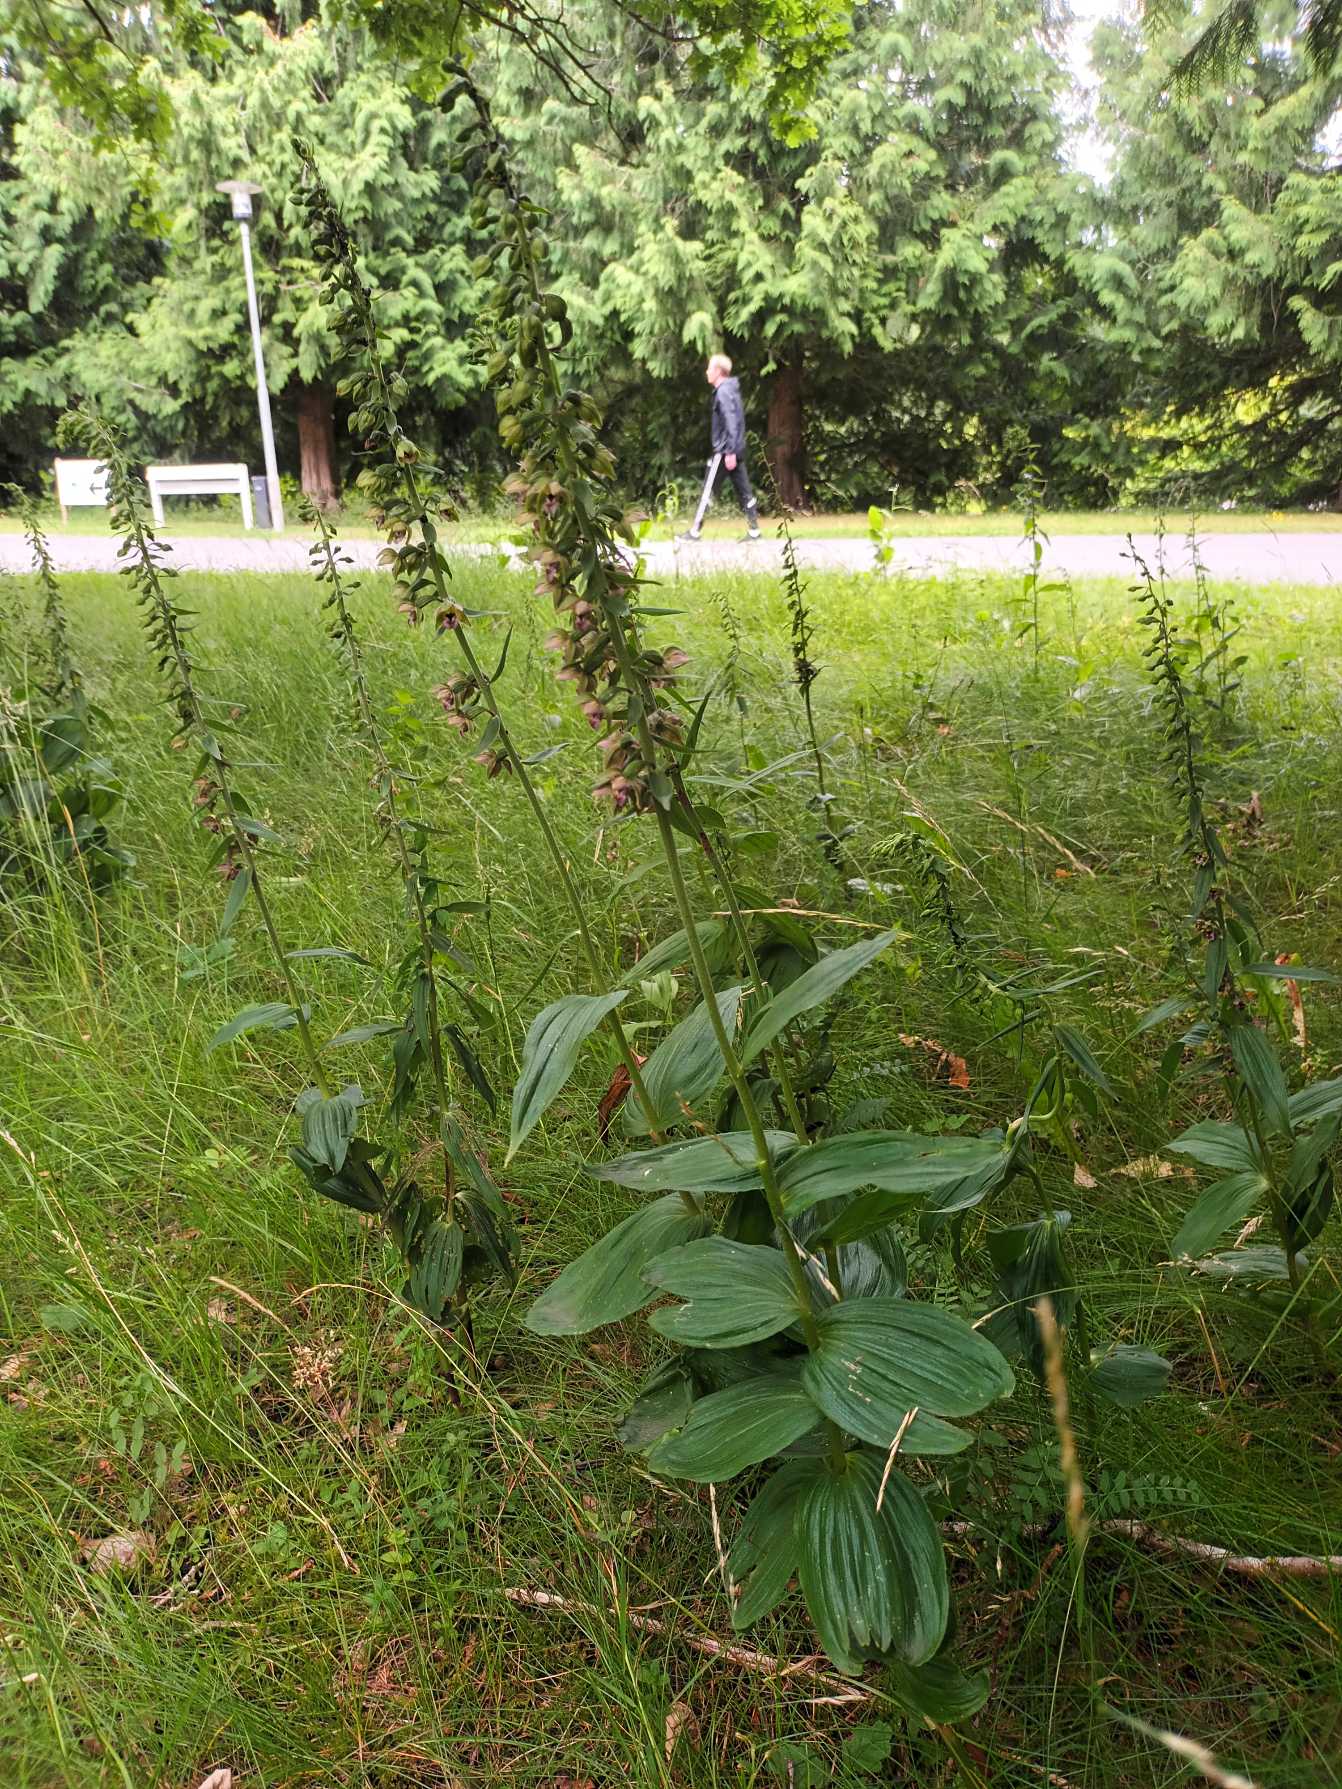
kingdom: Plantae
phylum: Tracheophyta
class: Liliopsida
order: Asparagales
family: Orchidaceae
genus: Epipactis
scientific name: Epipactis helleborine
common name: Skov-hullæbe
